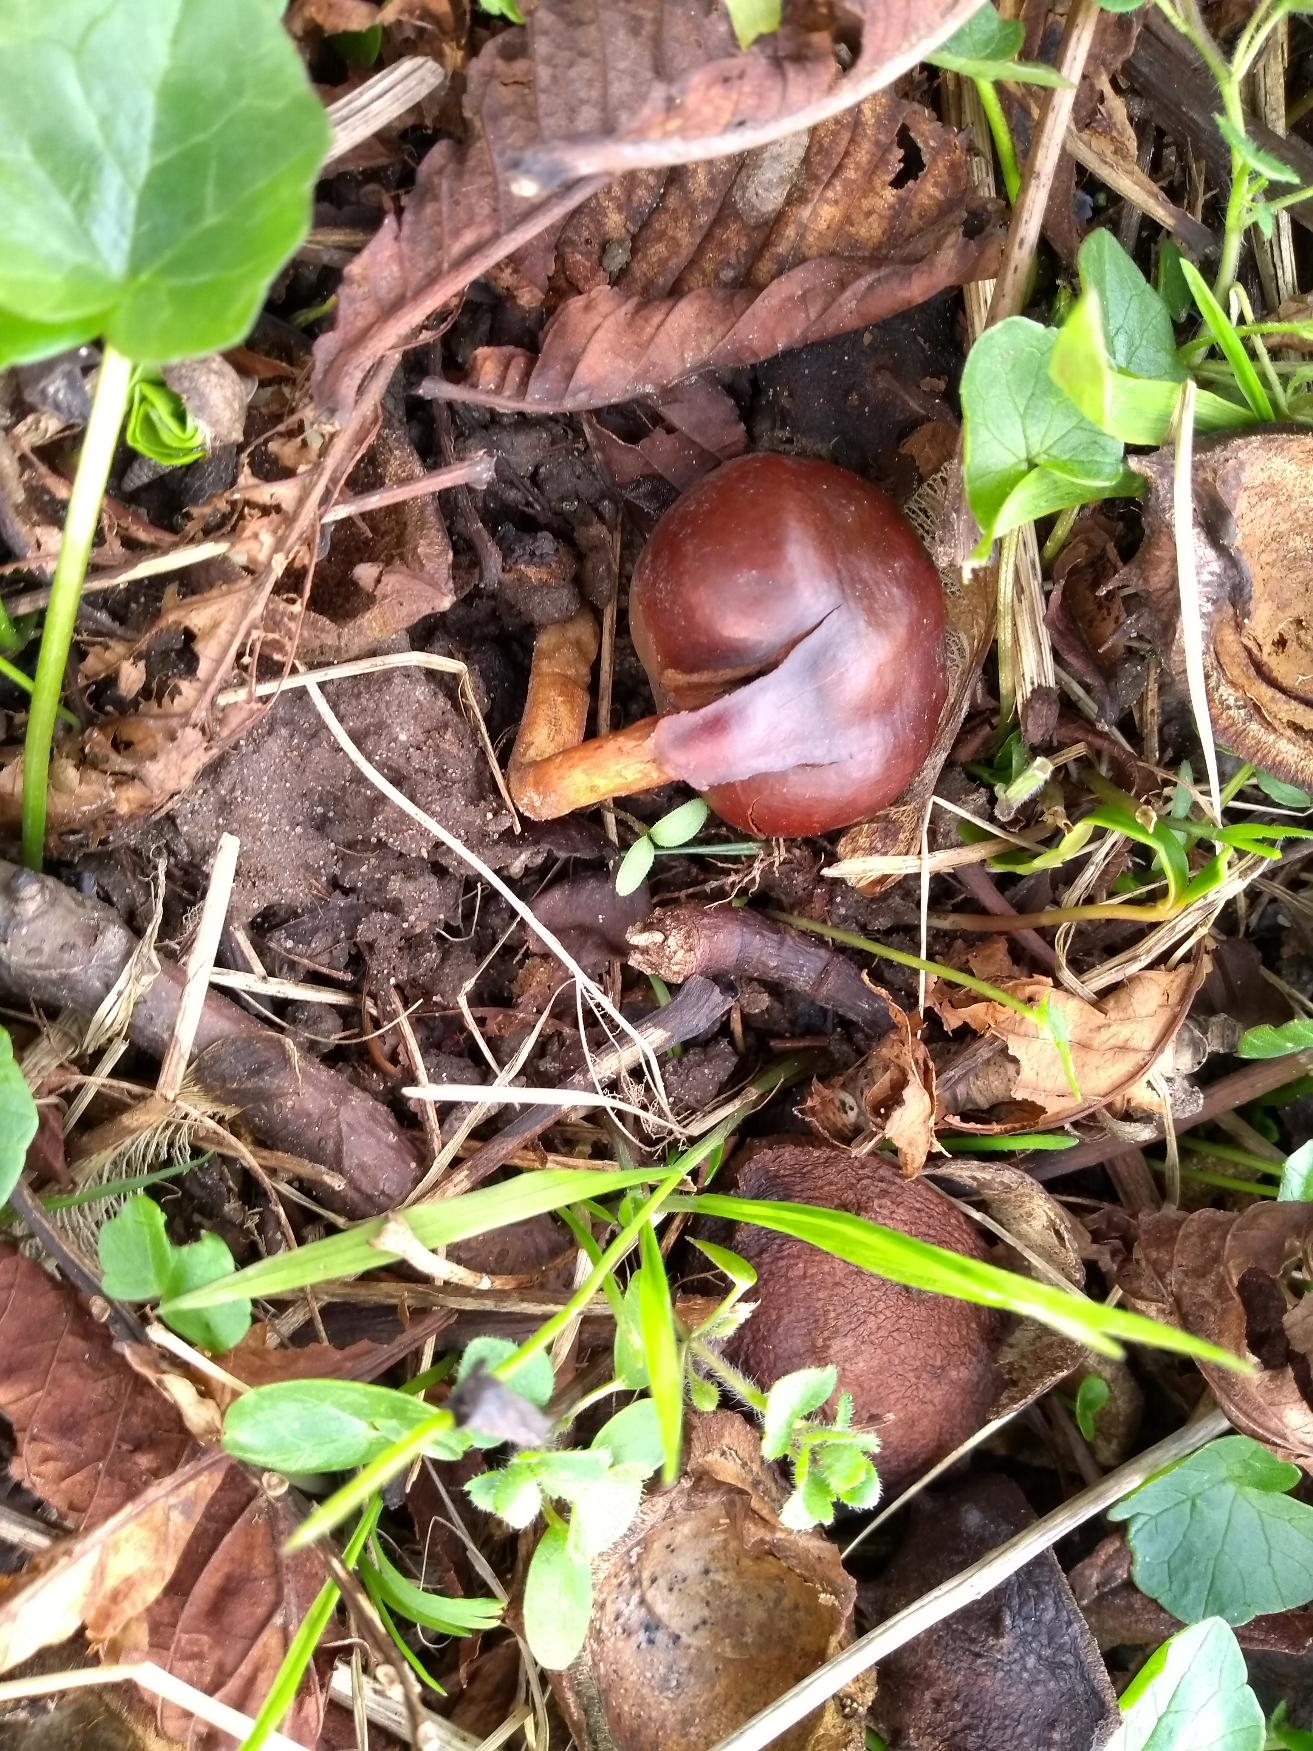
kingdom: Plantae
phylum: Tracheophyta
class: Magnoliopsida
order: Sapindales
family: Sapindaceae
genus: Aesculus
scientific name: Aesculus hippocastanum
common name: Hestekastanie
